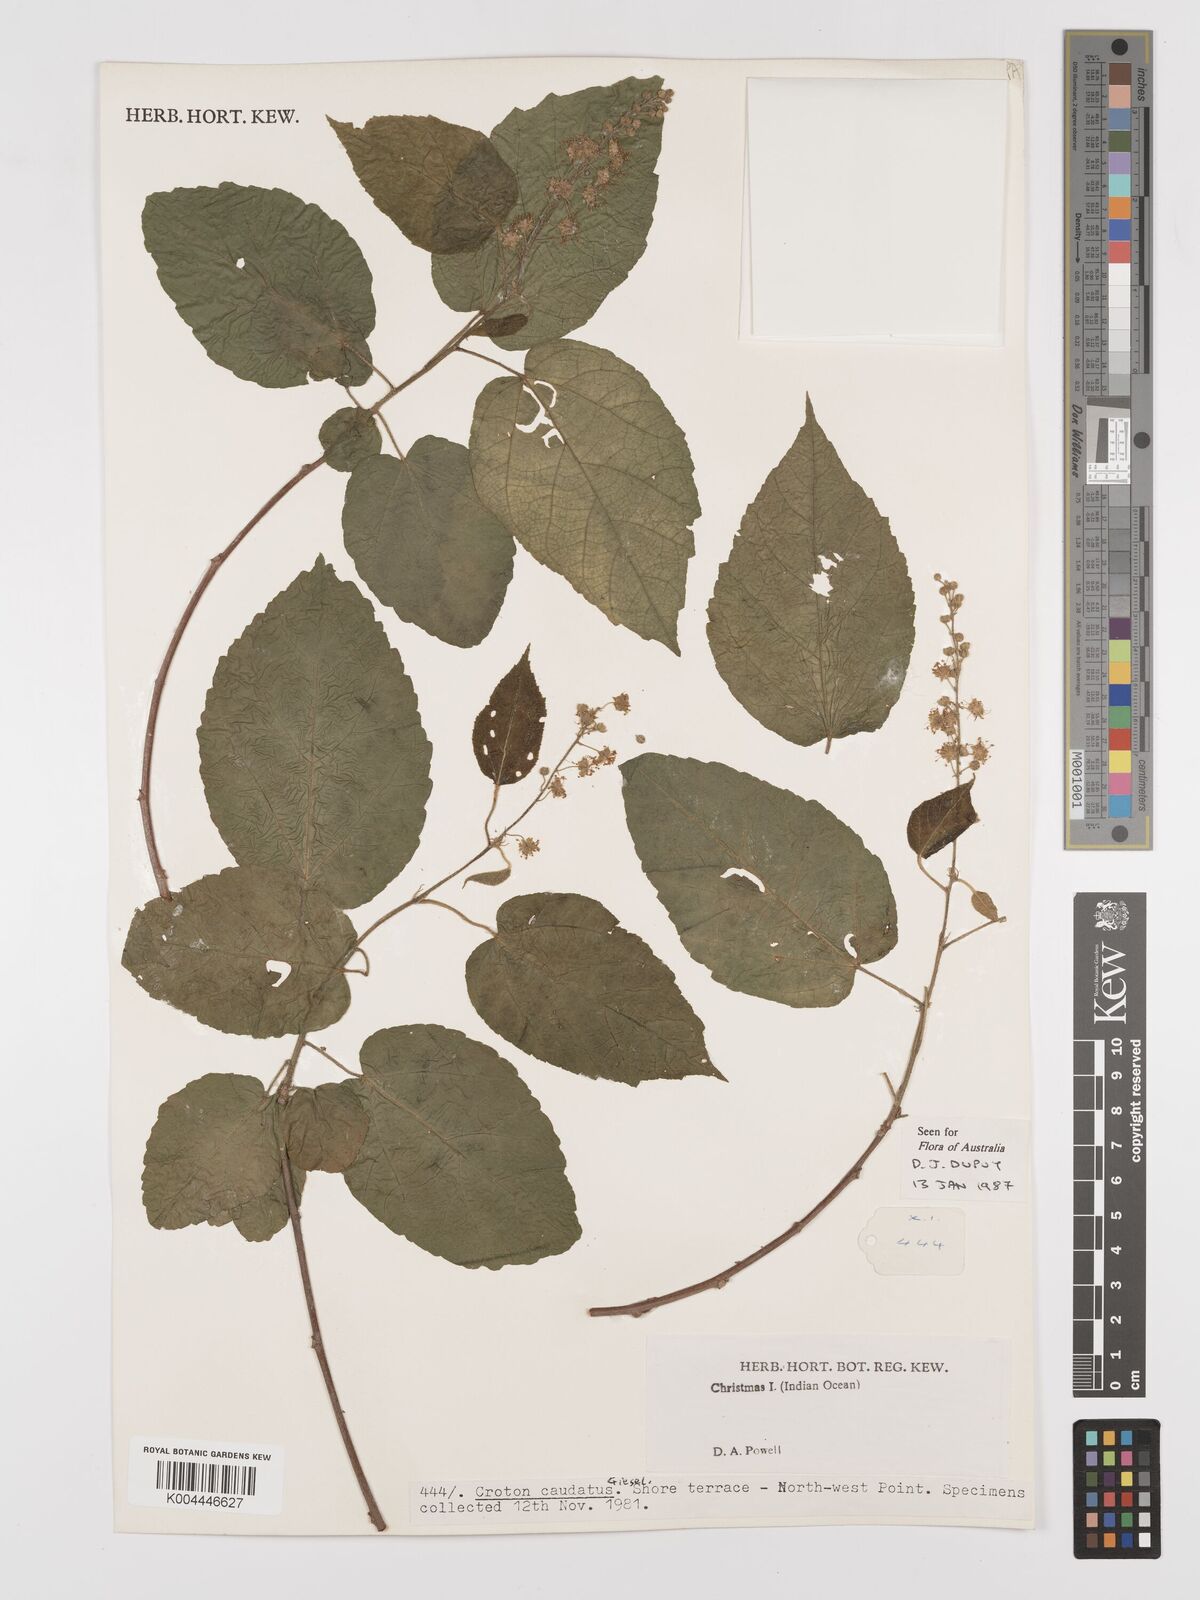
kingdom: Plantae
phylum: Tracheophyta
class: Magnoliopsida
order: Malpighiales
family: Euphorbiaceae
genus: Croton
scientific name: Croton caudatus
